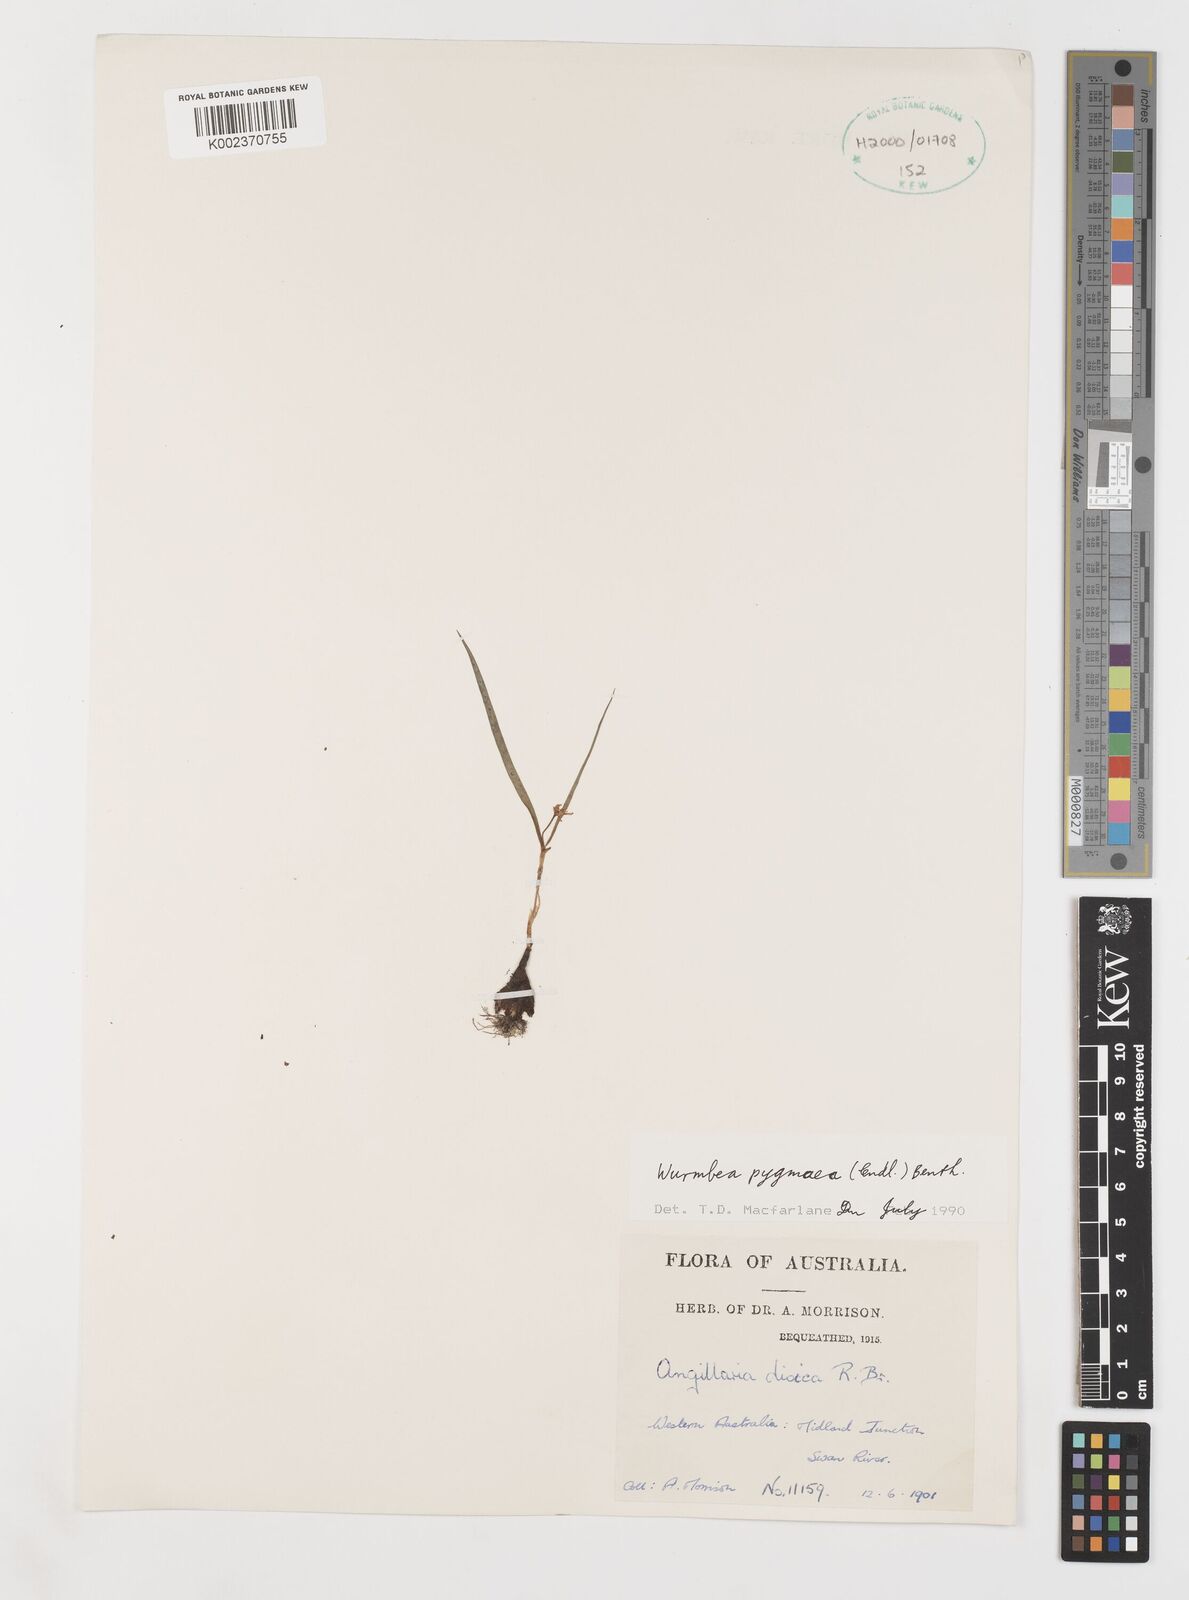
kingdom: Plantae
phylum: Tracheophyta
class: Liliopsida
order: Liliales
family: Colchicaceae
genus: Wurmbea
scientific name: Wurmbea pygmaea
